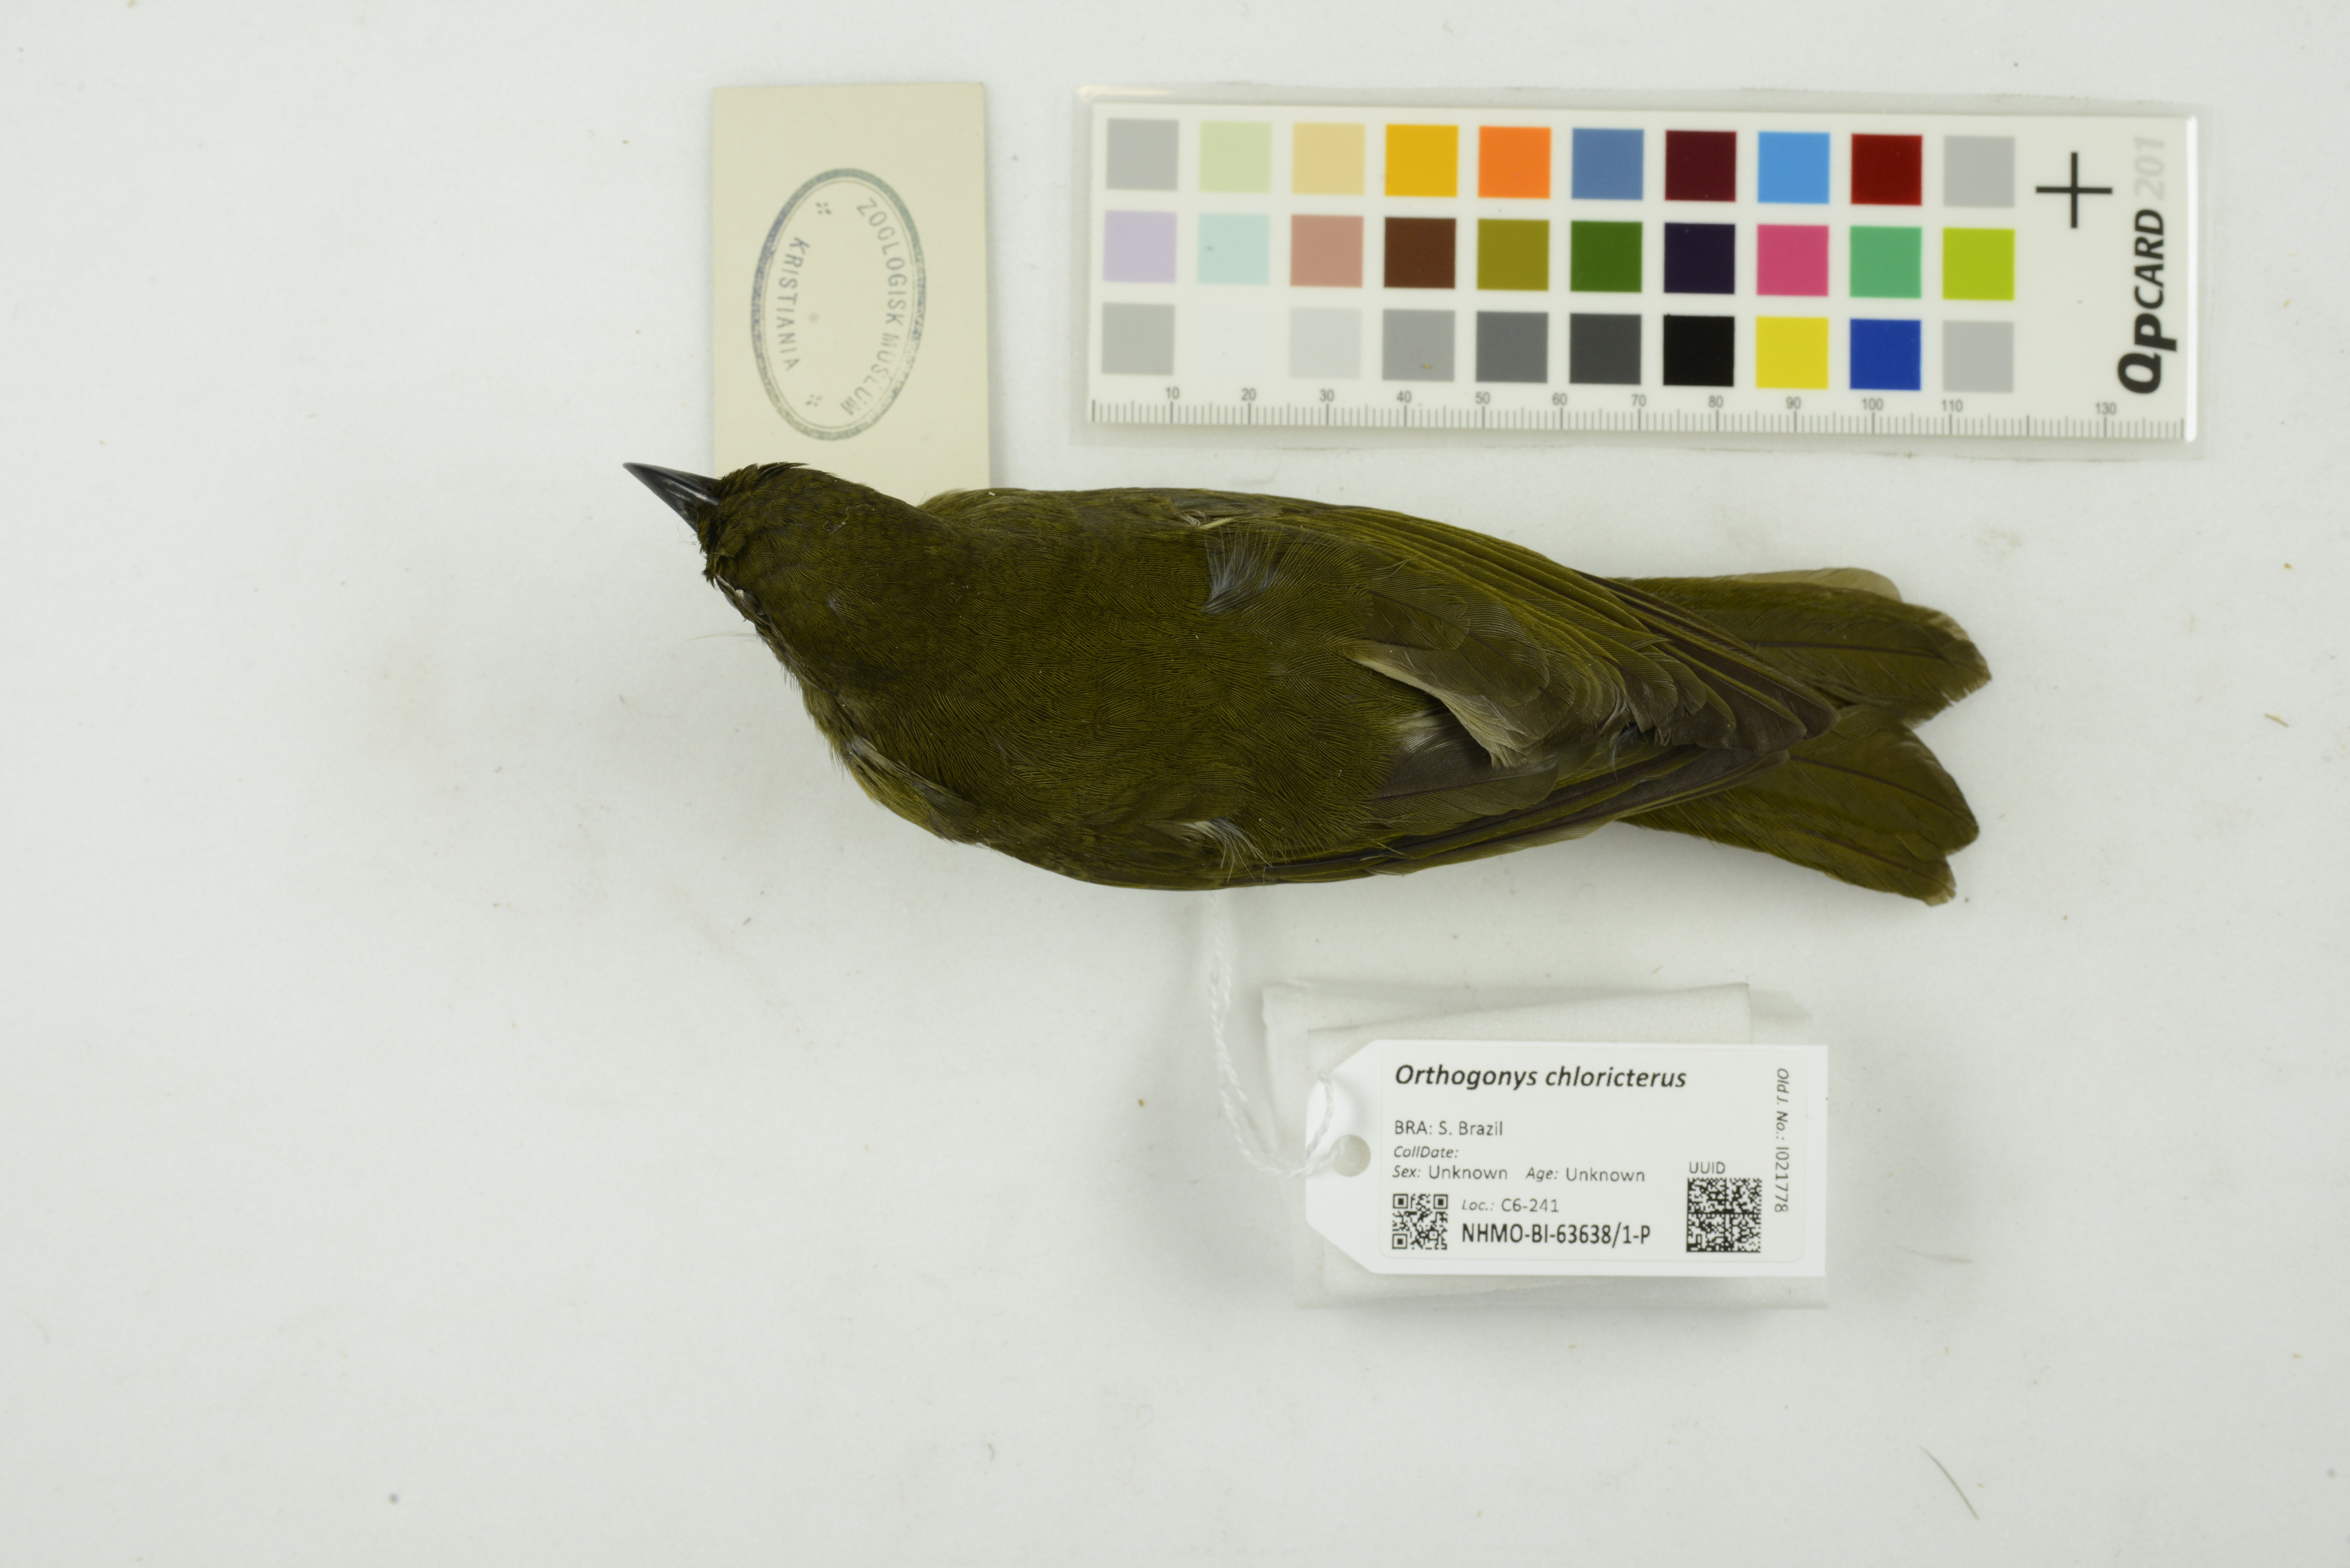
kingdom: Animalia
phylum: Chordata
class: Aves
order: Passeriformes
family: Mitrospingidae
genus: Orthogonys
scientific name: Orthogonys chloricterus
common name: Olive-green tanager
